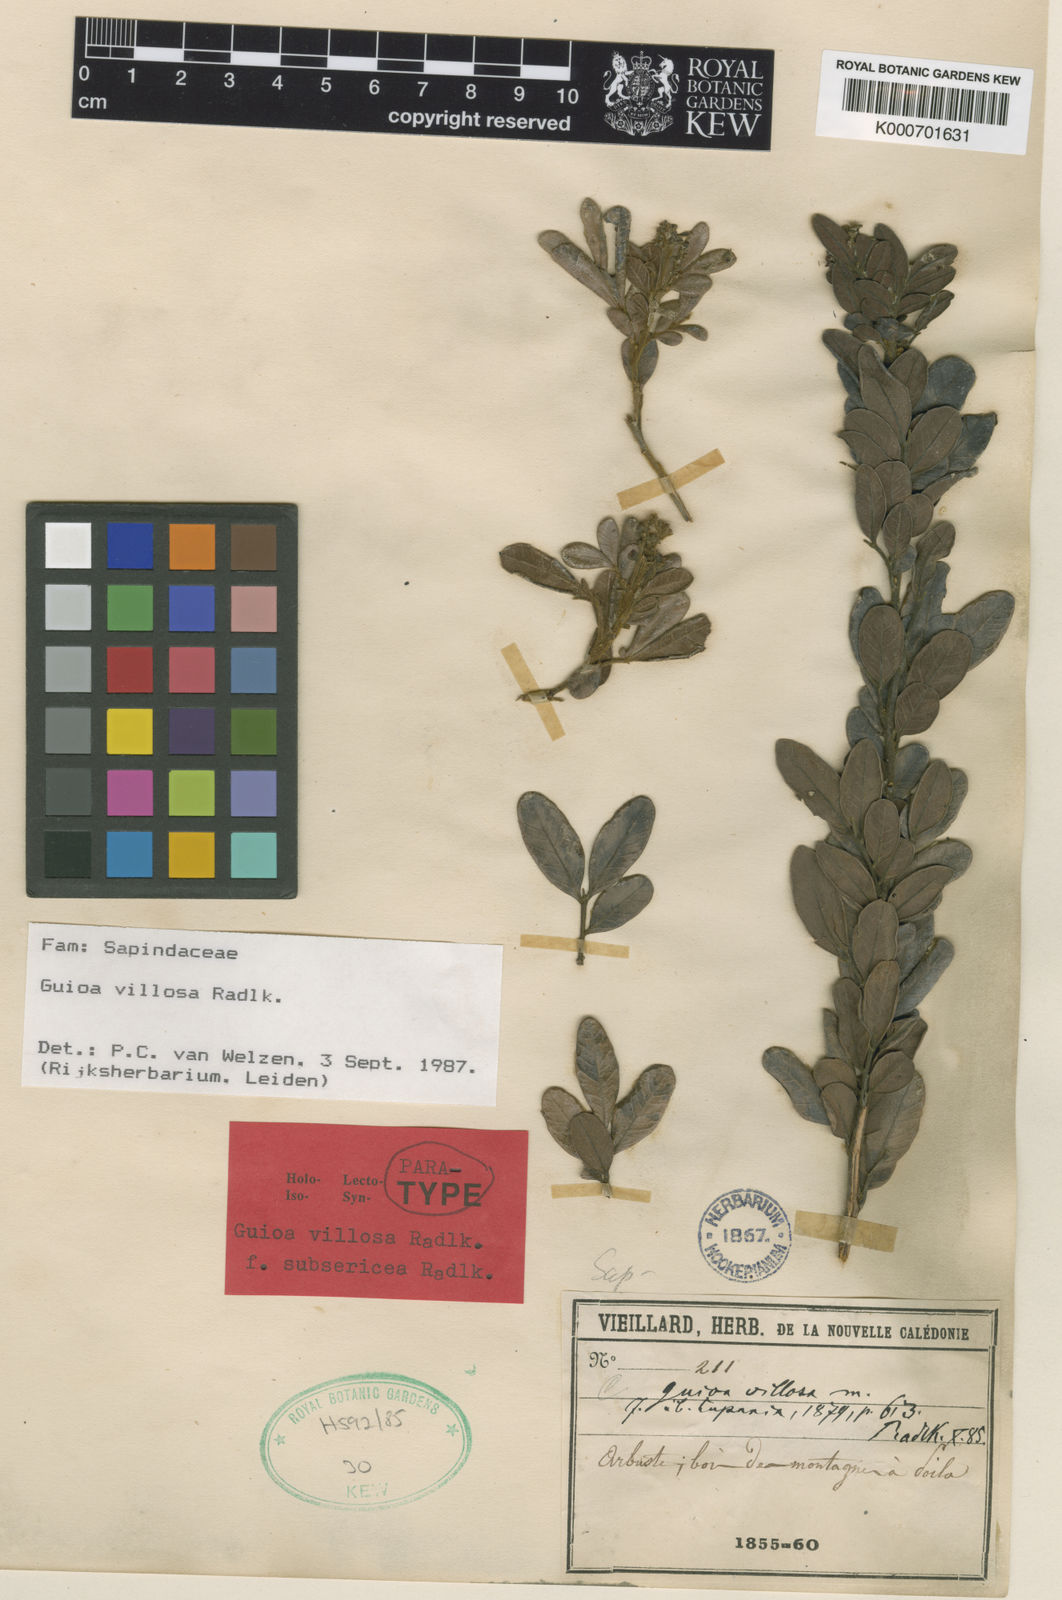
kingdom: Plantae
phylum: Tracheophyta
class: Magnoliopsida
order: Sapindales
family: Sapindaceae
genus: Guioa
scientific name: Guioa villosa
